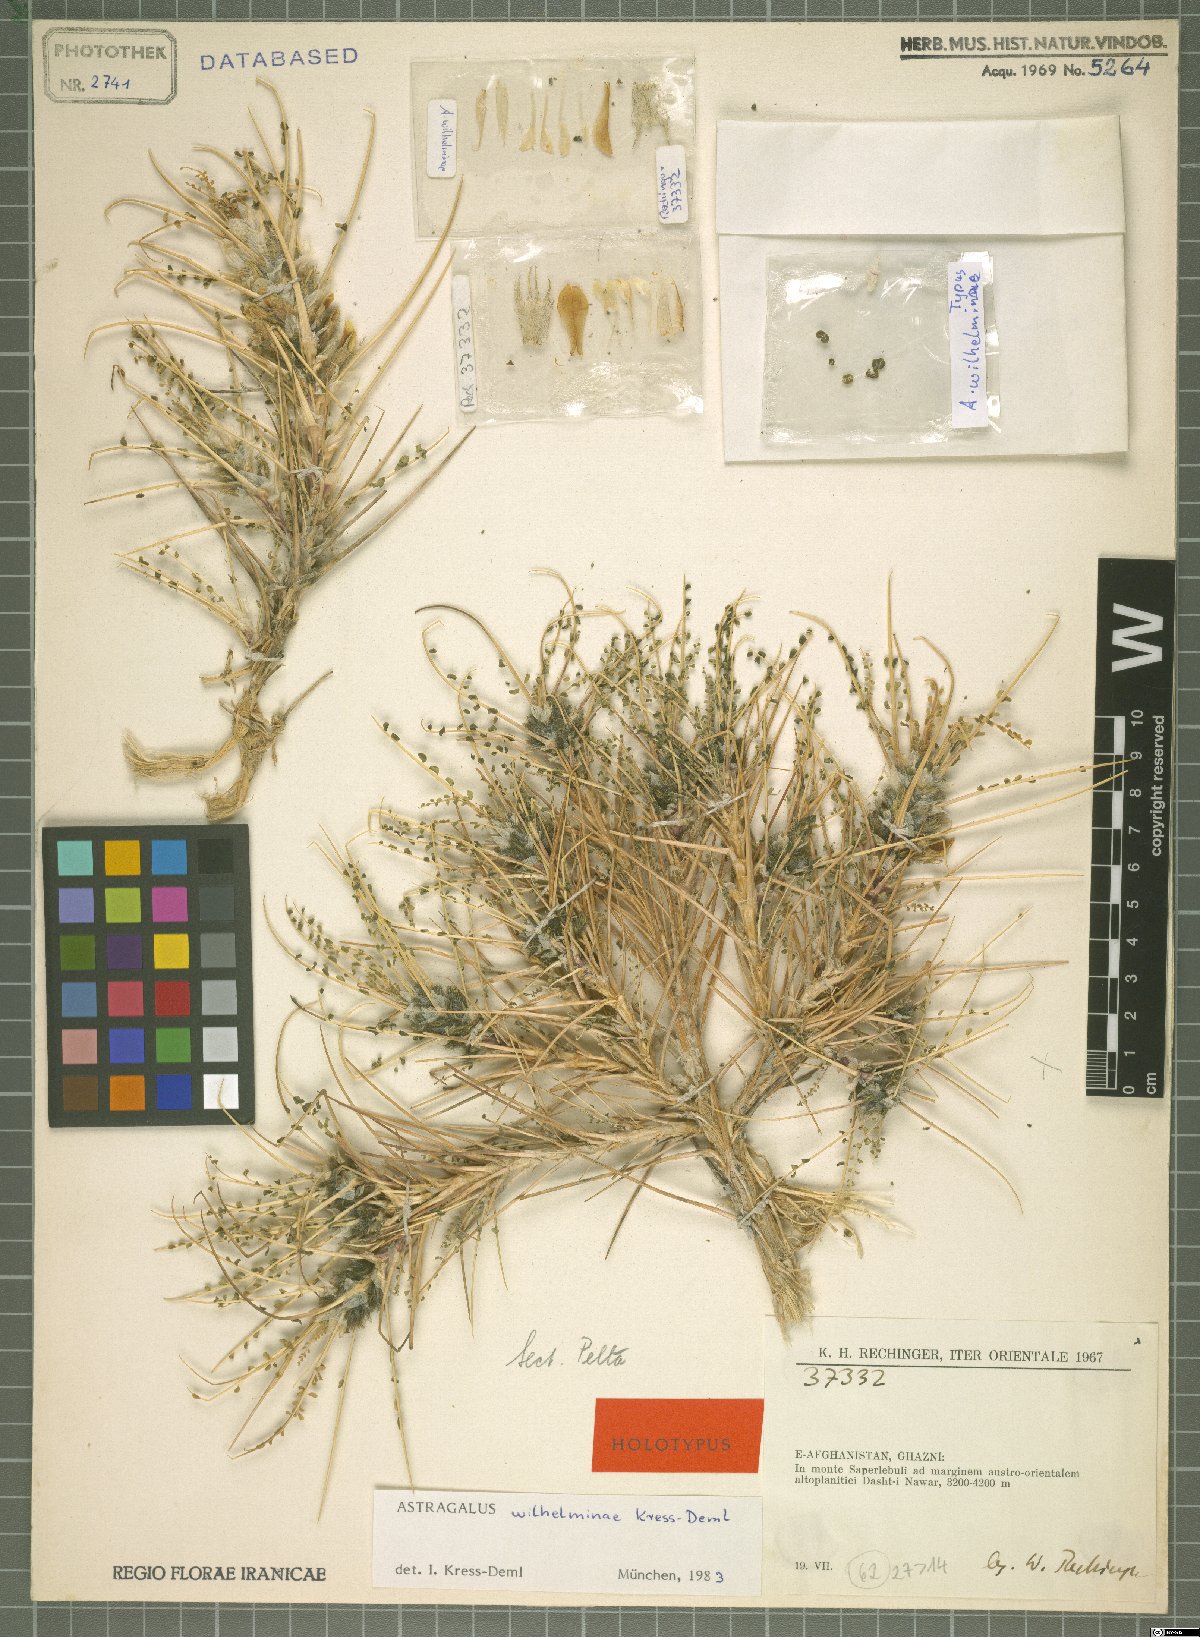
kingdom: Plantae
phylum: Tracheophyta
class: Magnoliopsida
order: Fabales
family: Fabaceae
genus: Astragalus
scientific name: Astragalus wilhelminae
